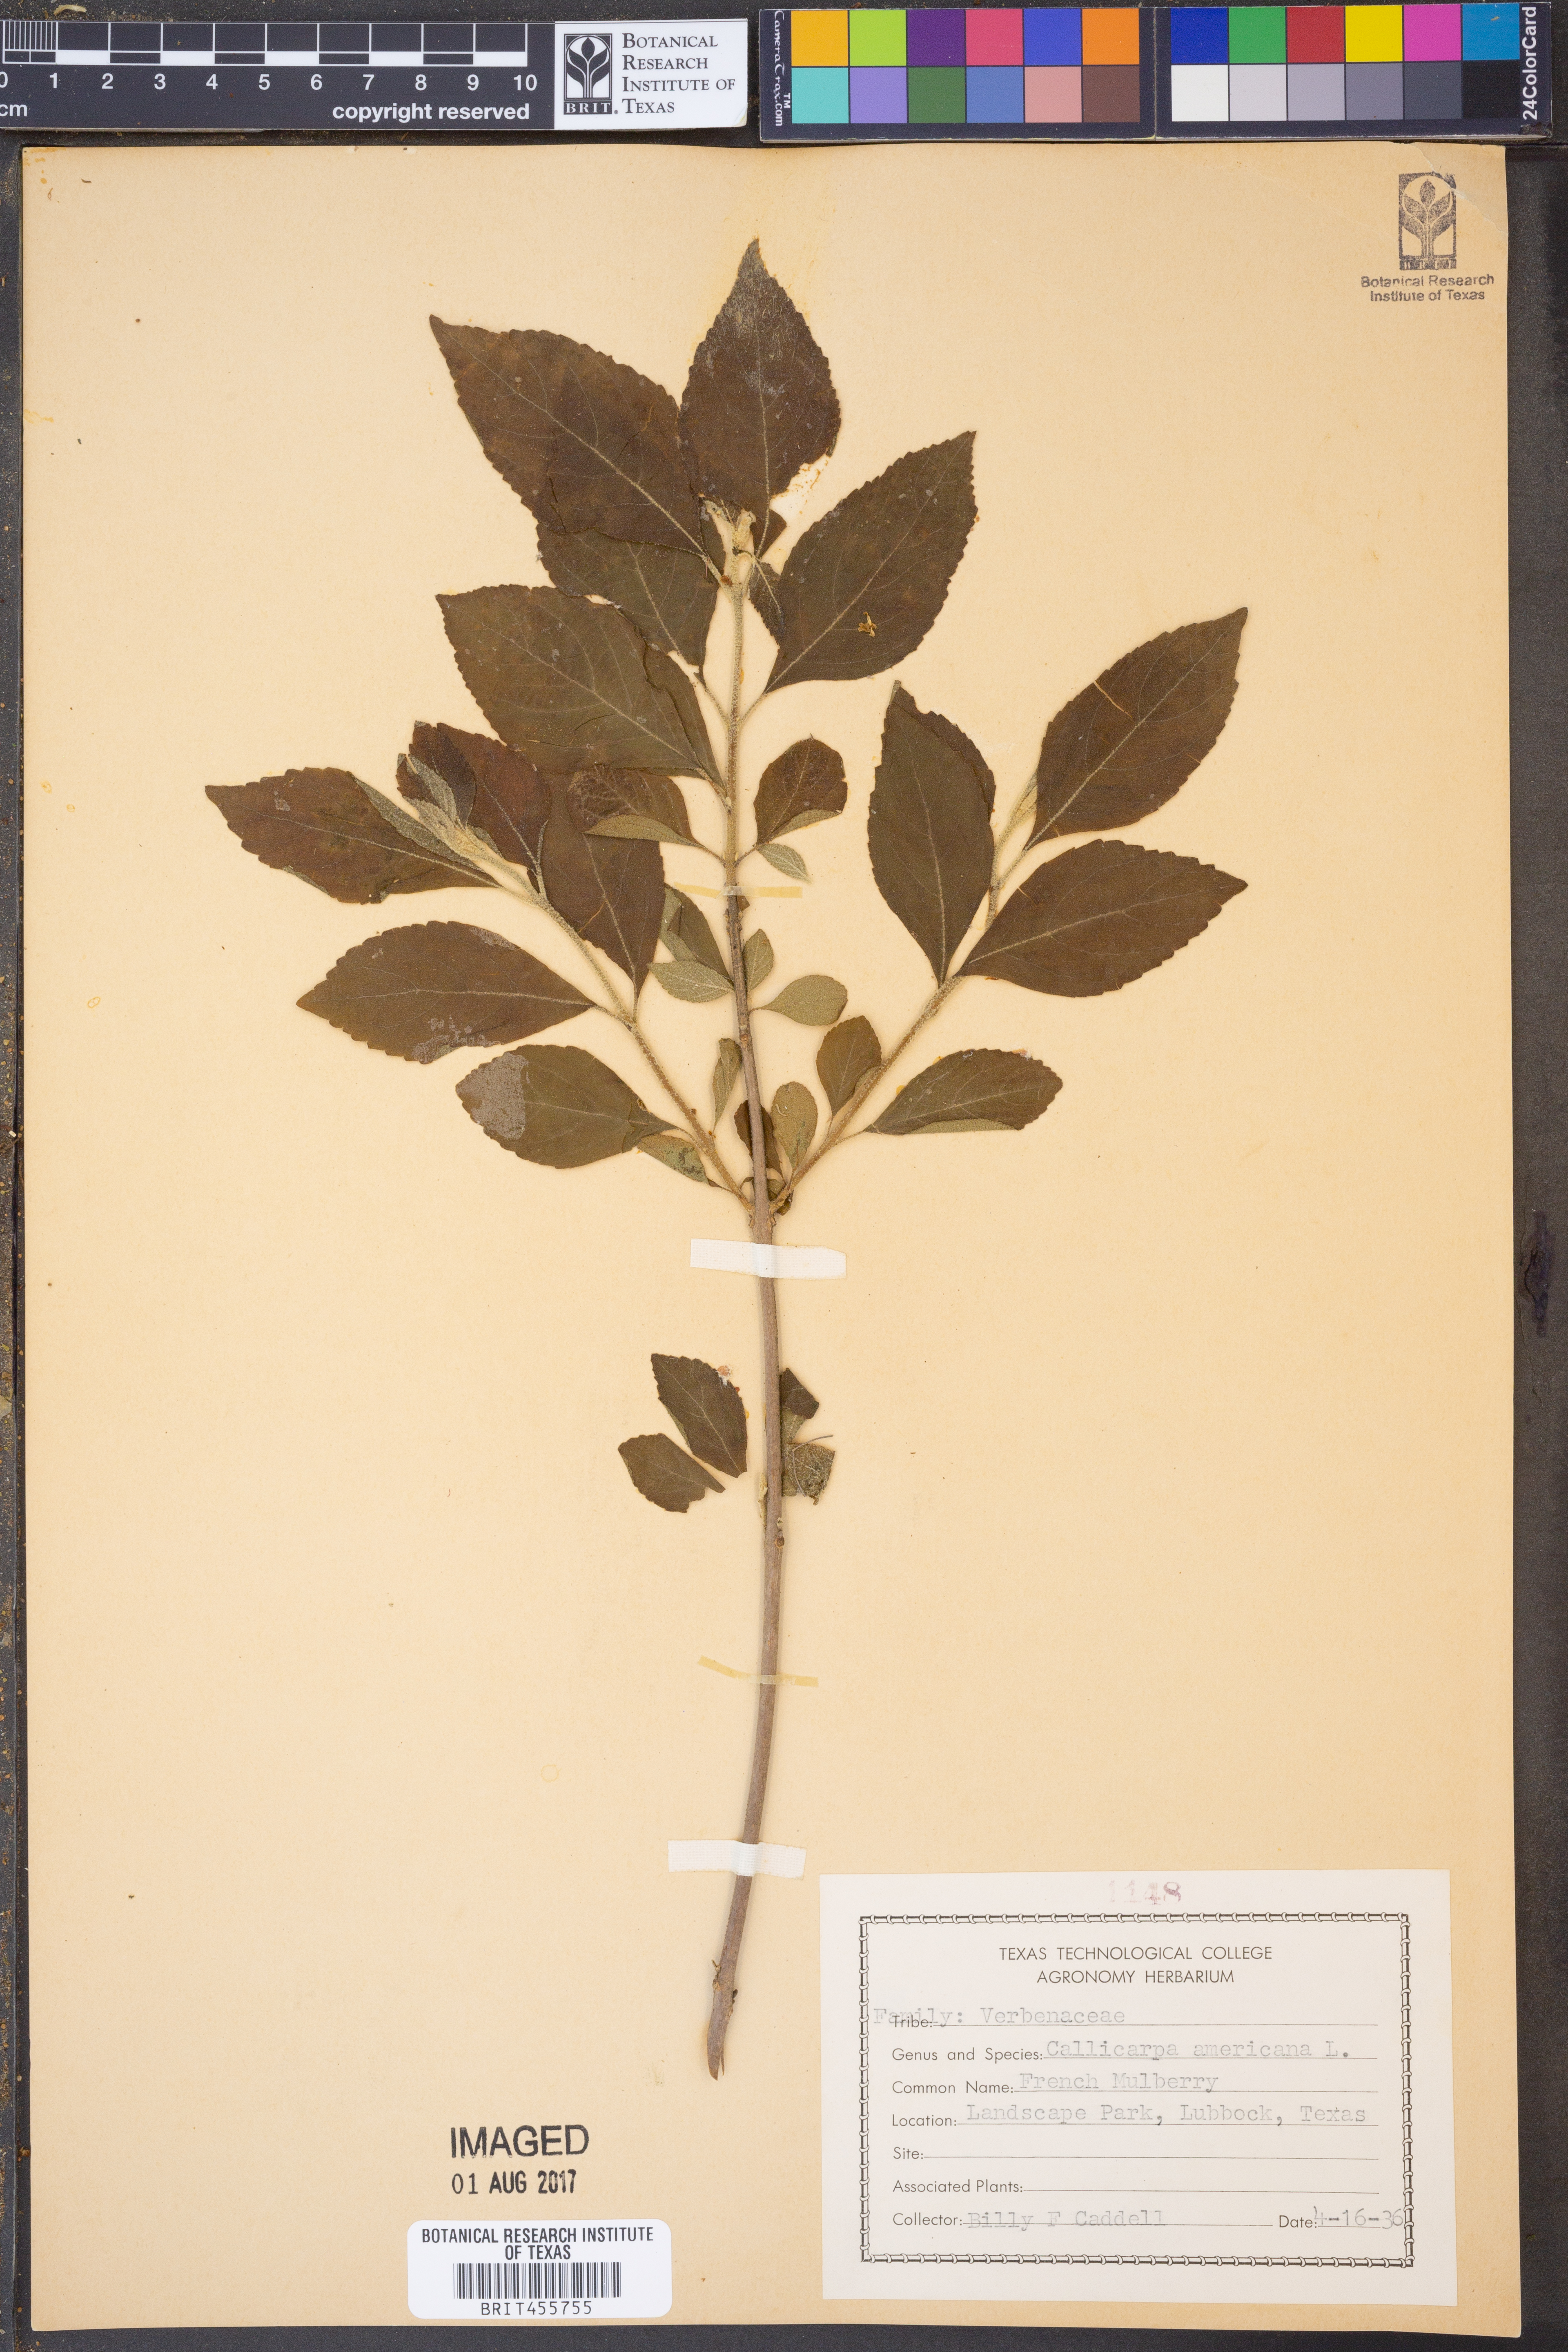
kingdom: Plantae
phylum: Tracheophyta
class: Magnoliopsida
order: Lamiales
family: Lamiaceae
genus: Callicarpa
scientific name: Callicarpa americana
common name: American beautyberry
